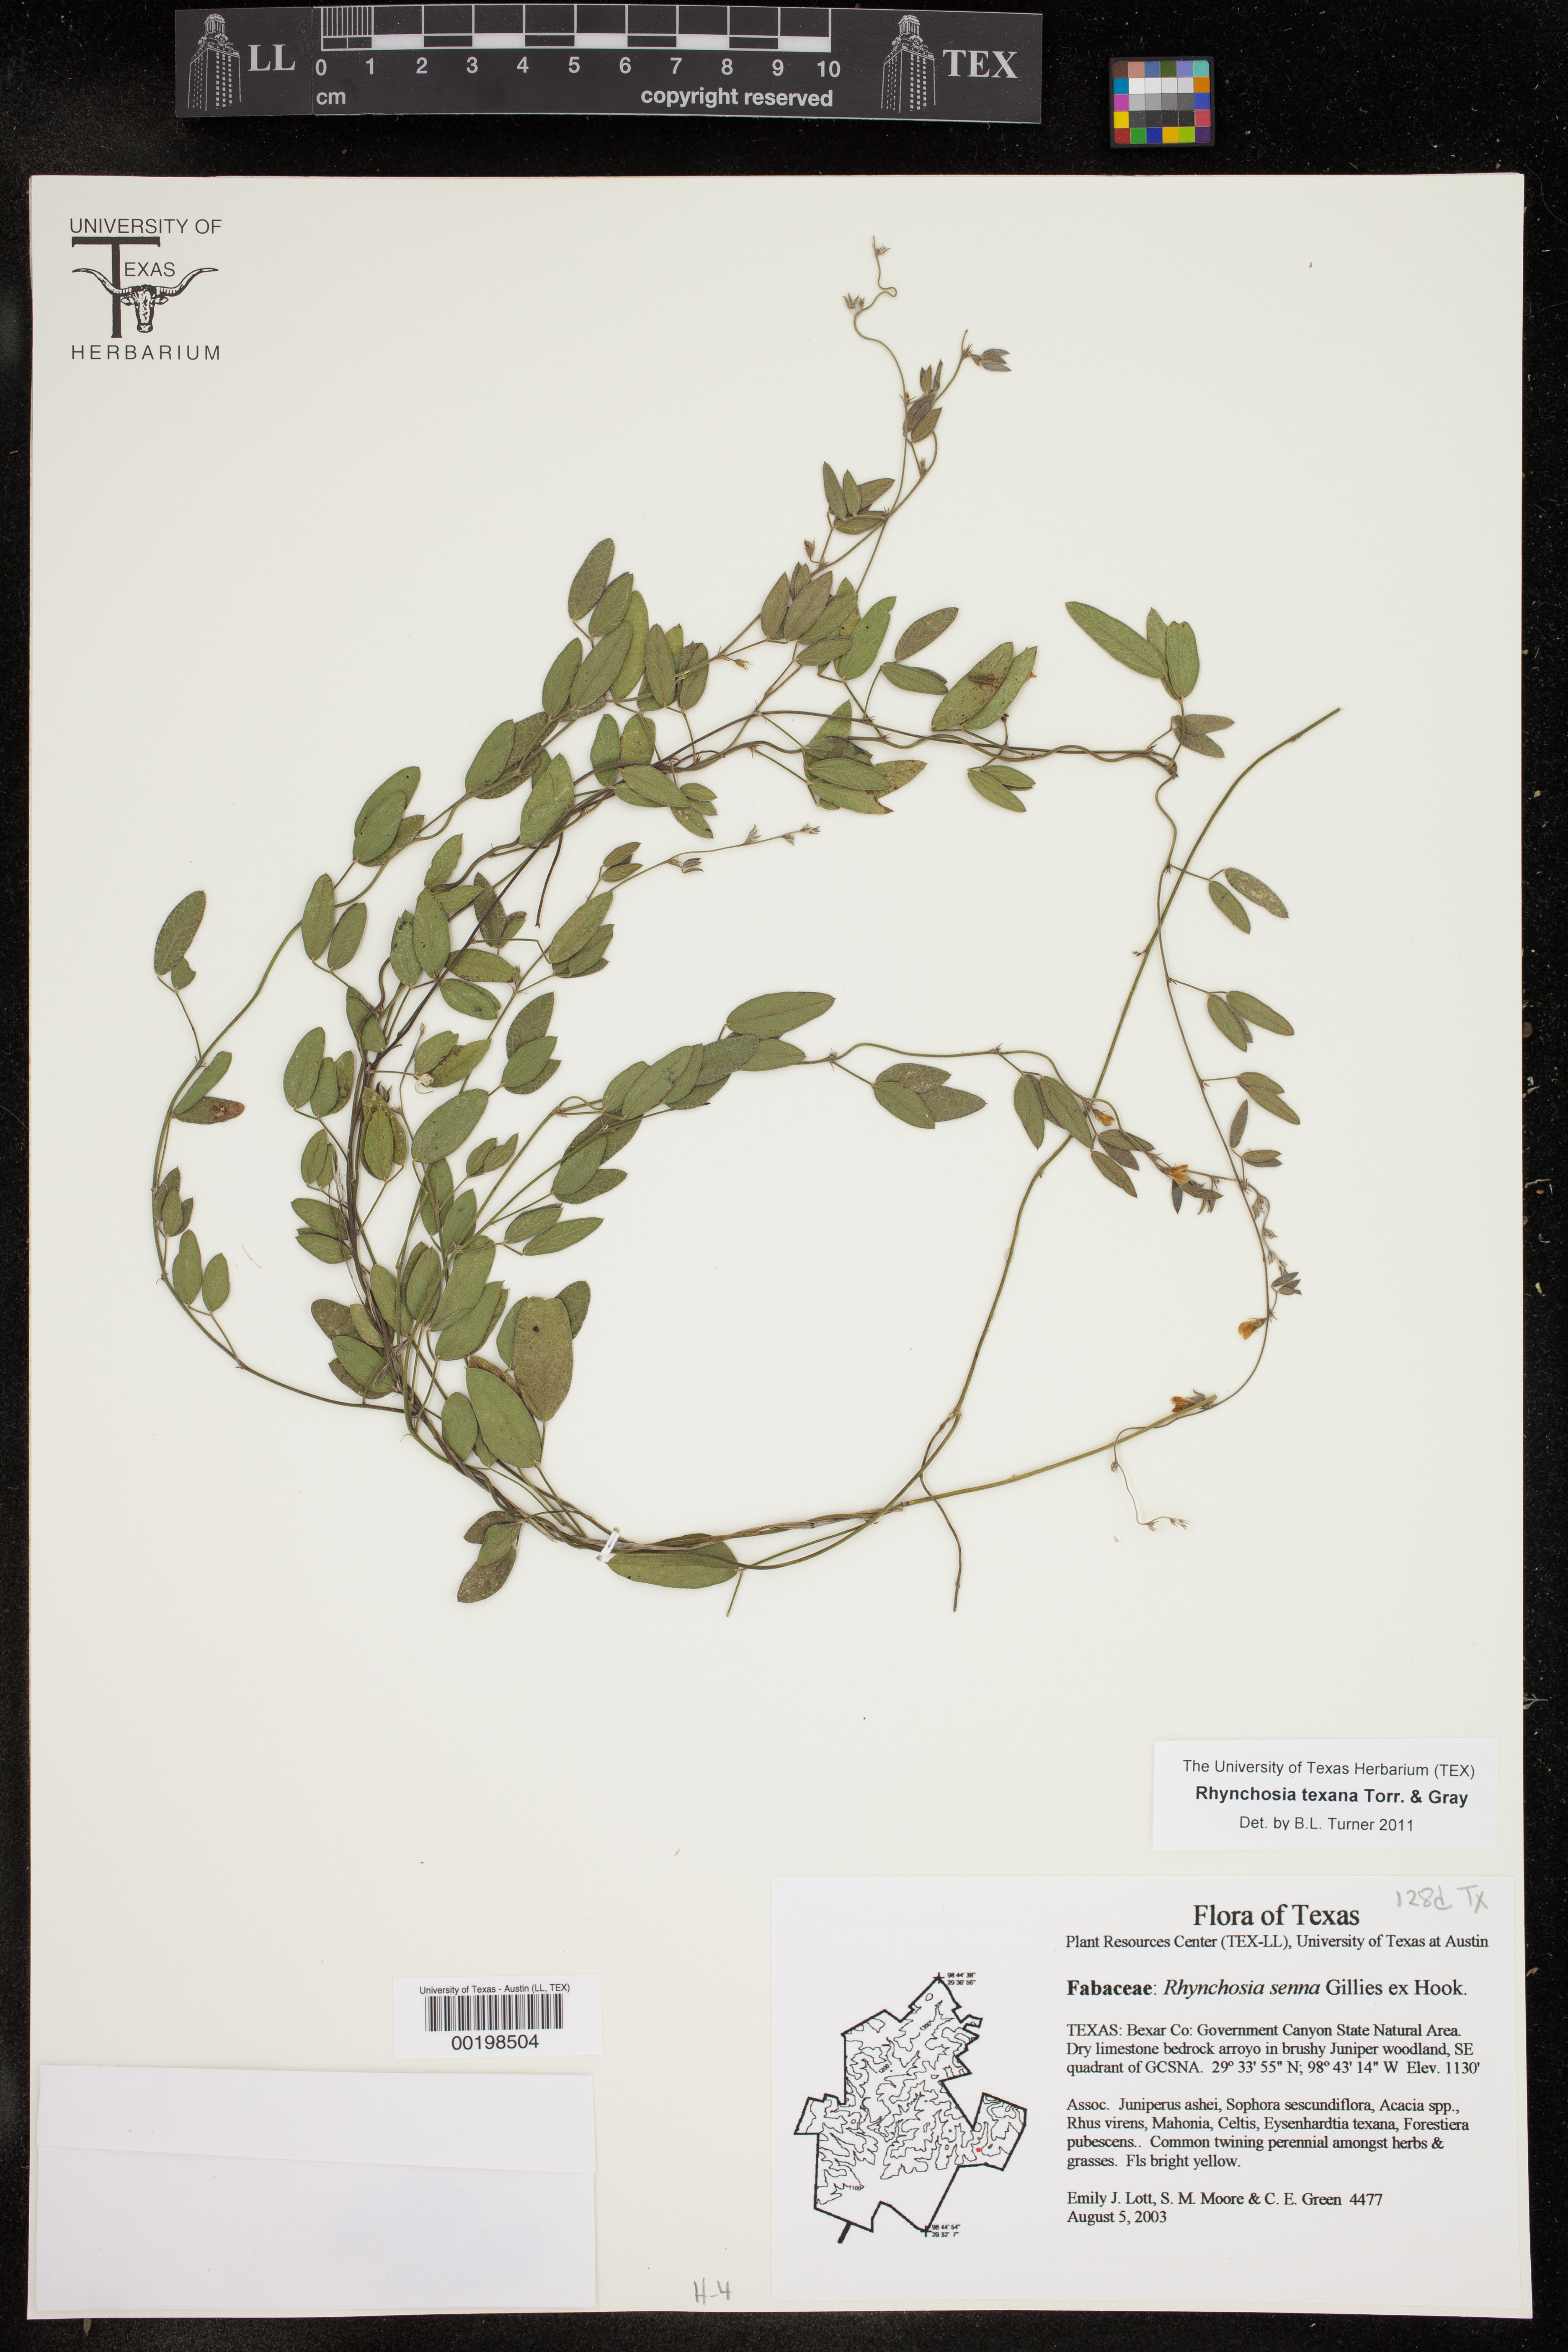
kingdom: Plantae
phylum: Tracheophyta
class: Magnoliopsida
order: Fabales
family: Fabaceae
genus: Rhynchosia
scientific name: Rhynchosia senna
